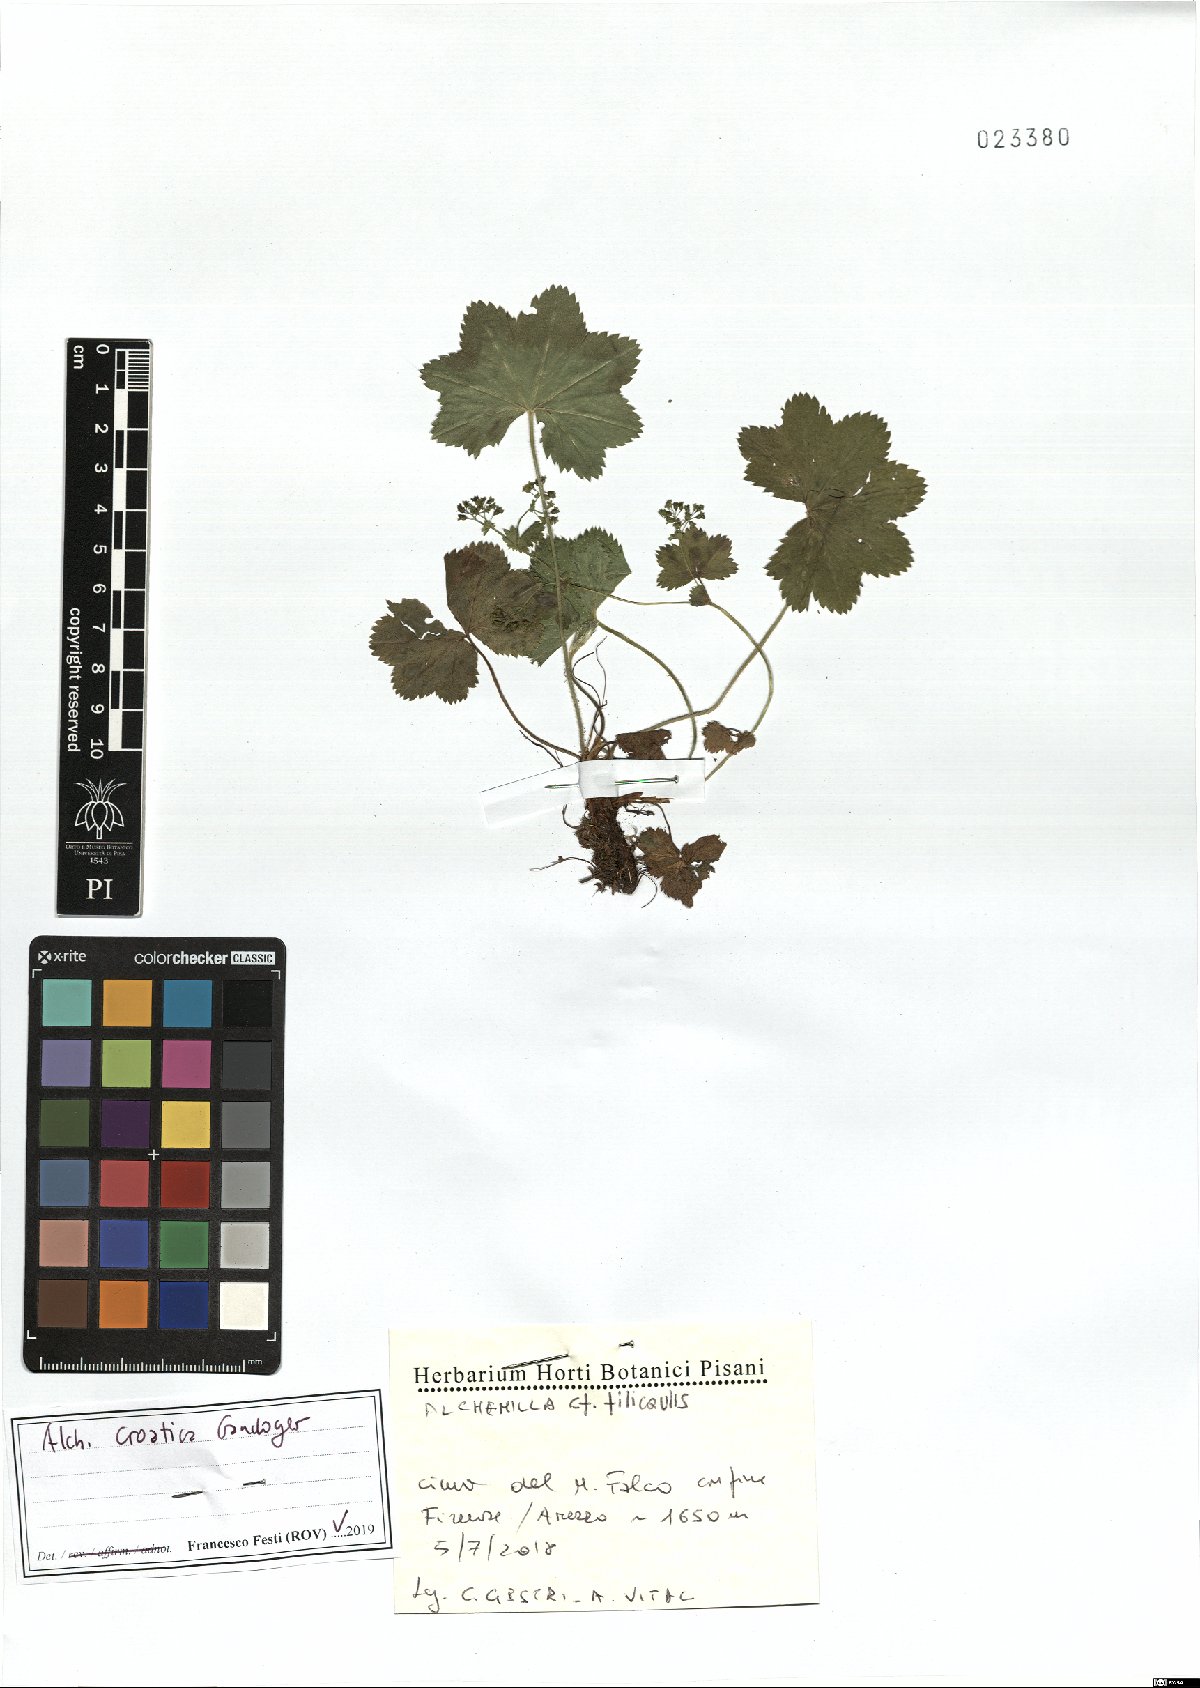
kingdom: Plantae
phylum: Tracheophyta
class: Magnoliopsida
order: Rosales
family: Rosaceae
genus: Alchemilla
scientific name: Alchemilla croatica
